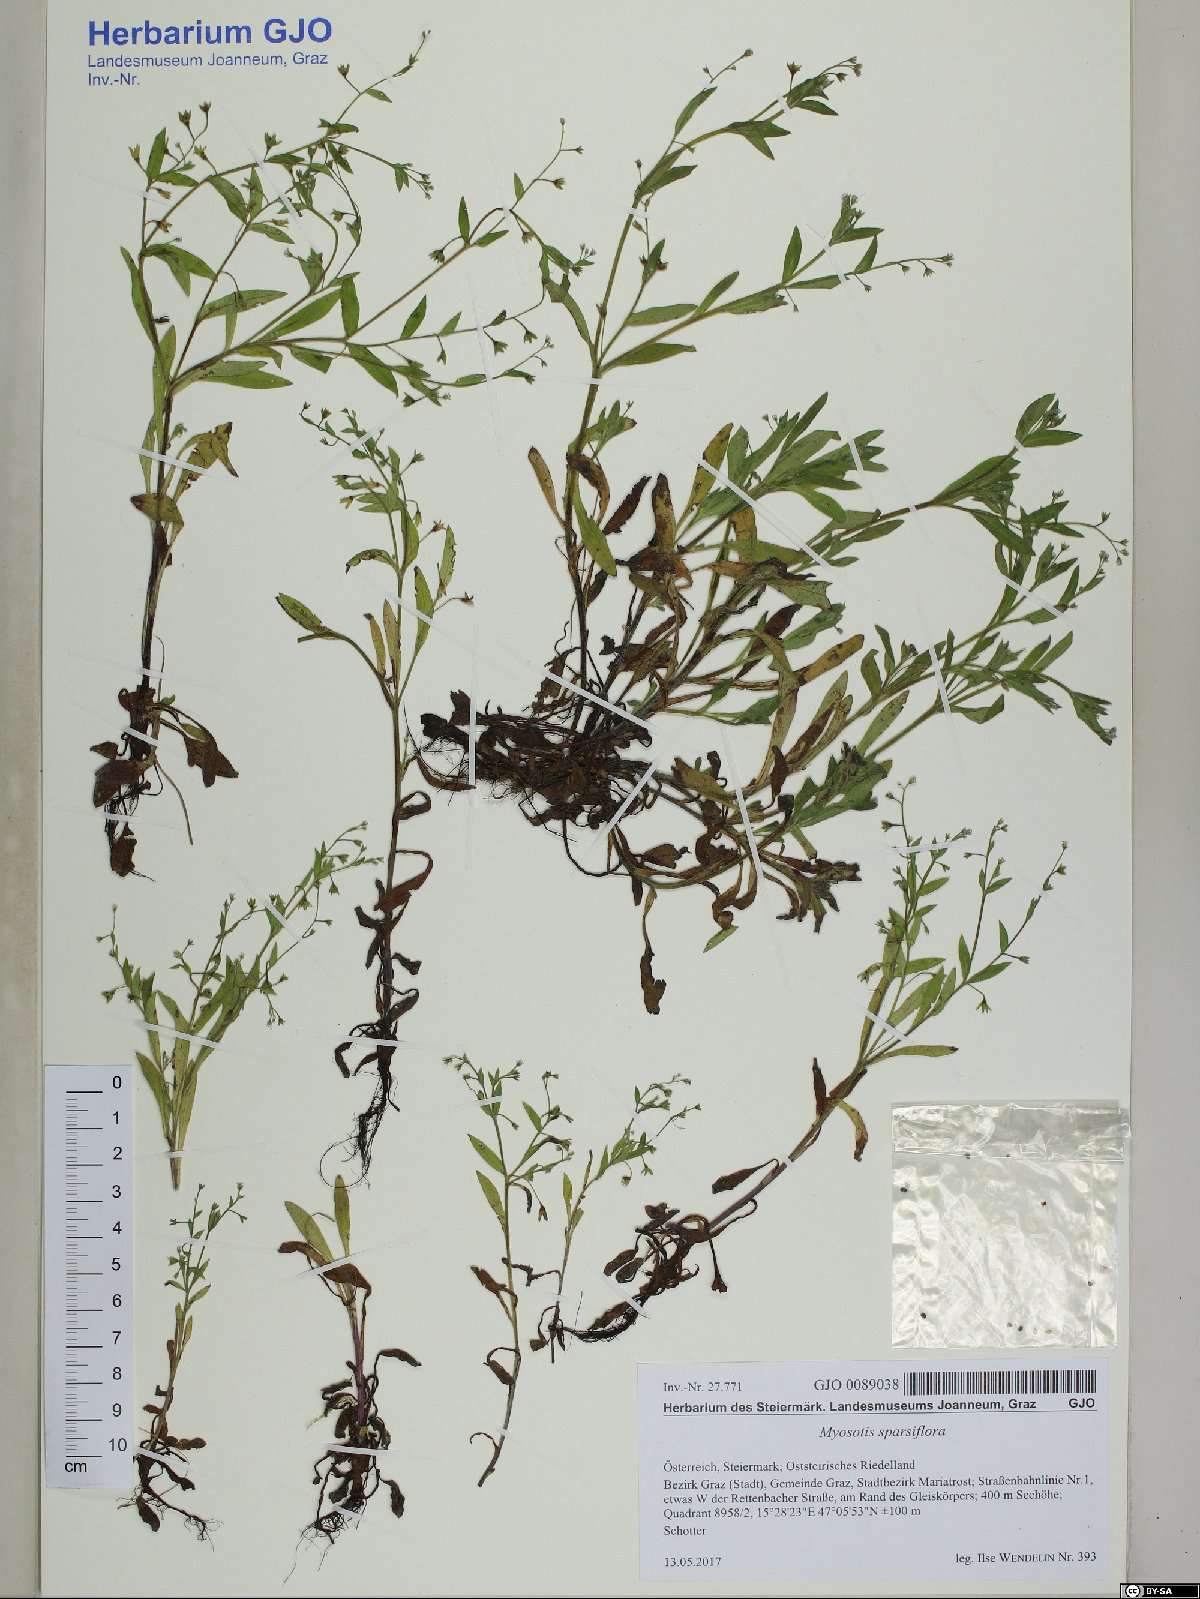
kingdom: Plantae
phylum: Tracheophyta
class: Magnoliopsida
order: Boraginales
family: Boraginaceae
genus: Myosotis
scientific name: Myosotis sparsiflora
